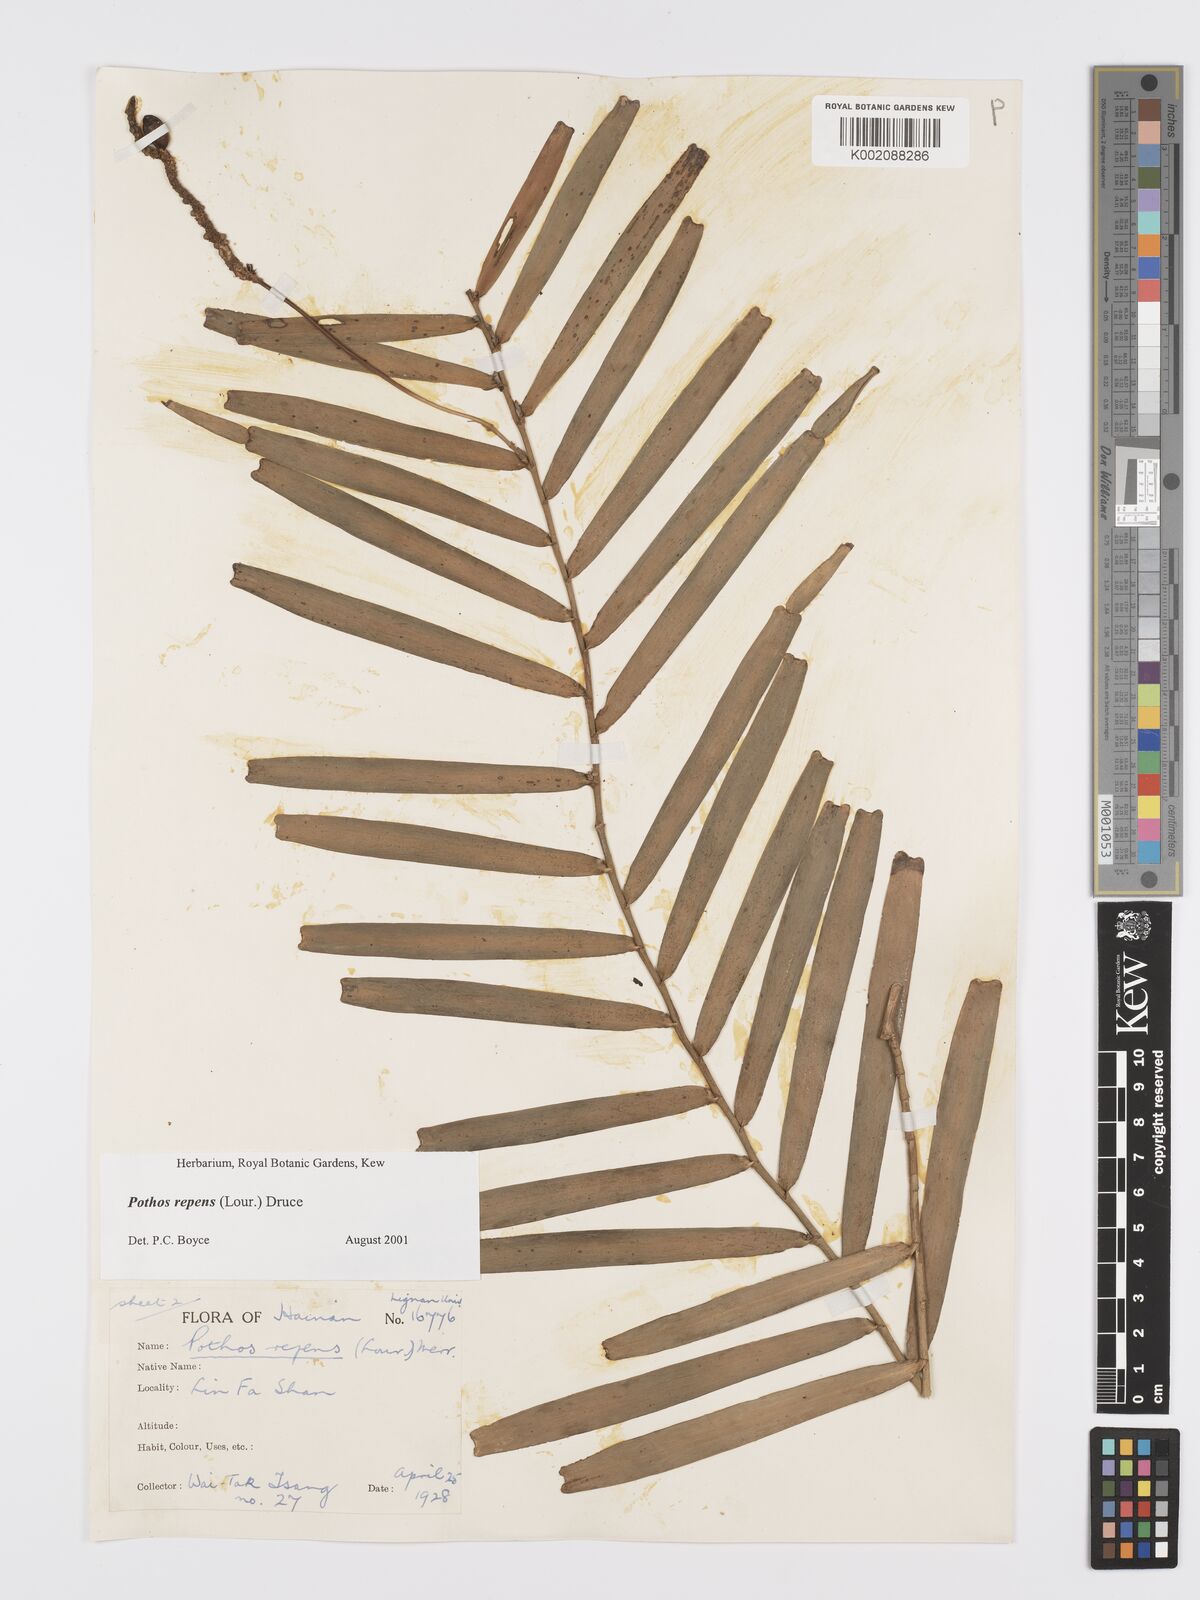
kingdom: Plantae
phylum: Tracheophyta
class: Liliopsida
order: Alismatales
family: Araceae
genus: Pothos
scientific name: Pothos repens
